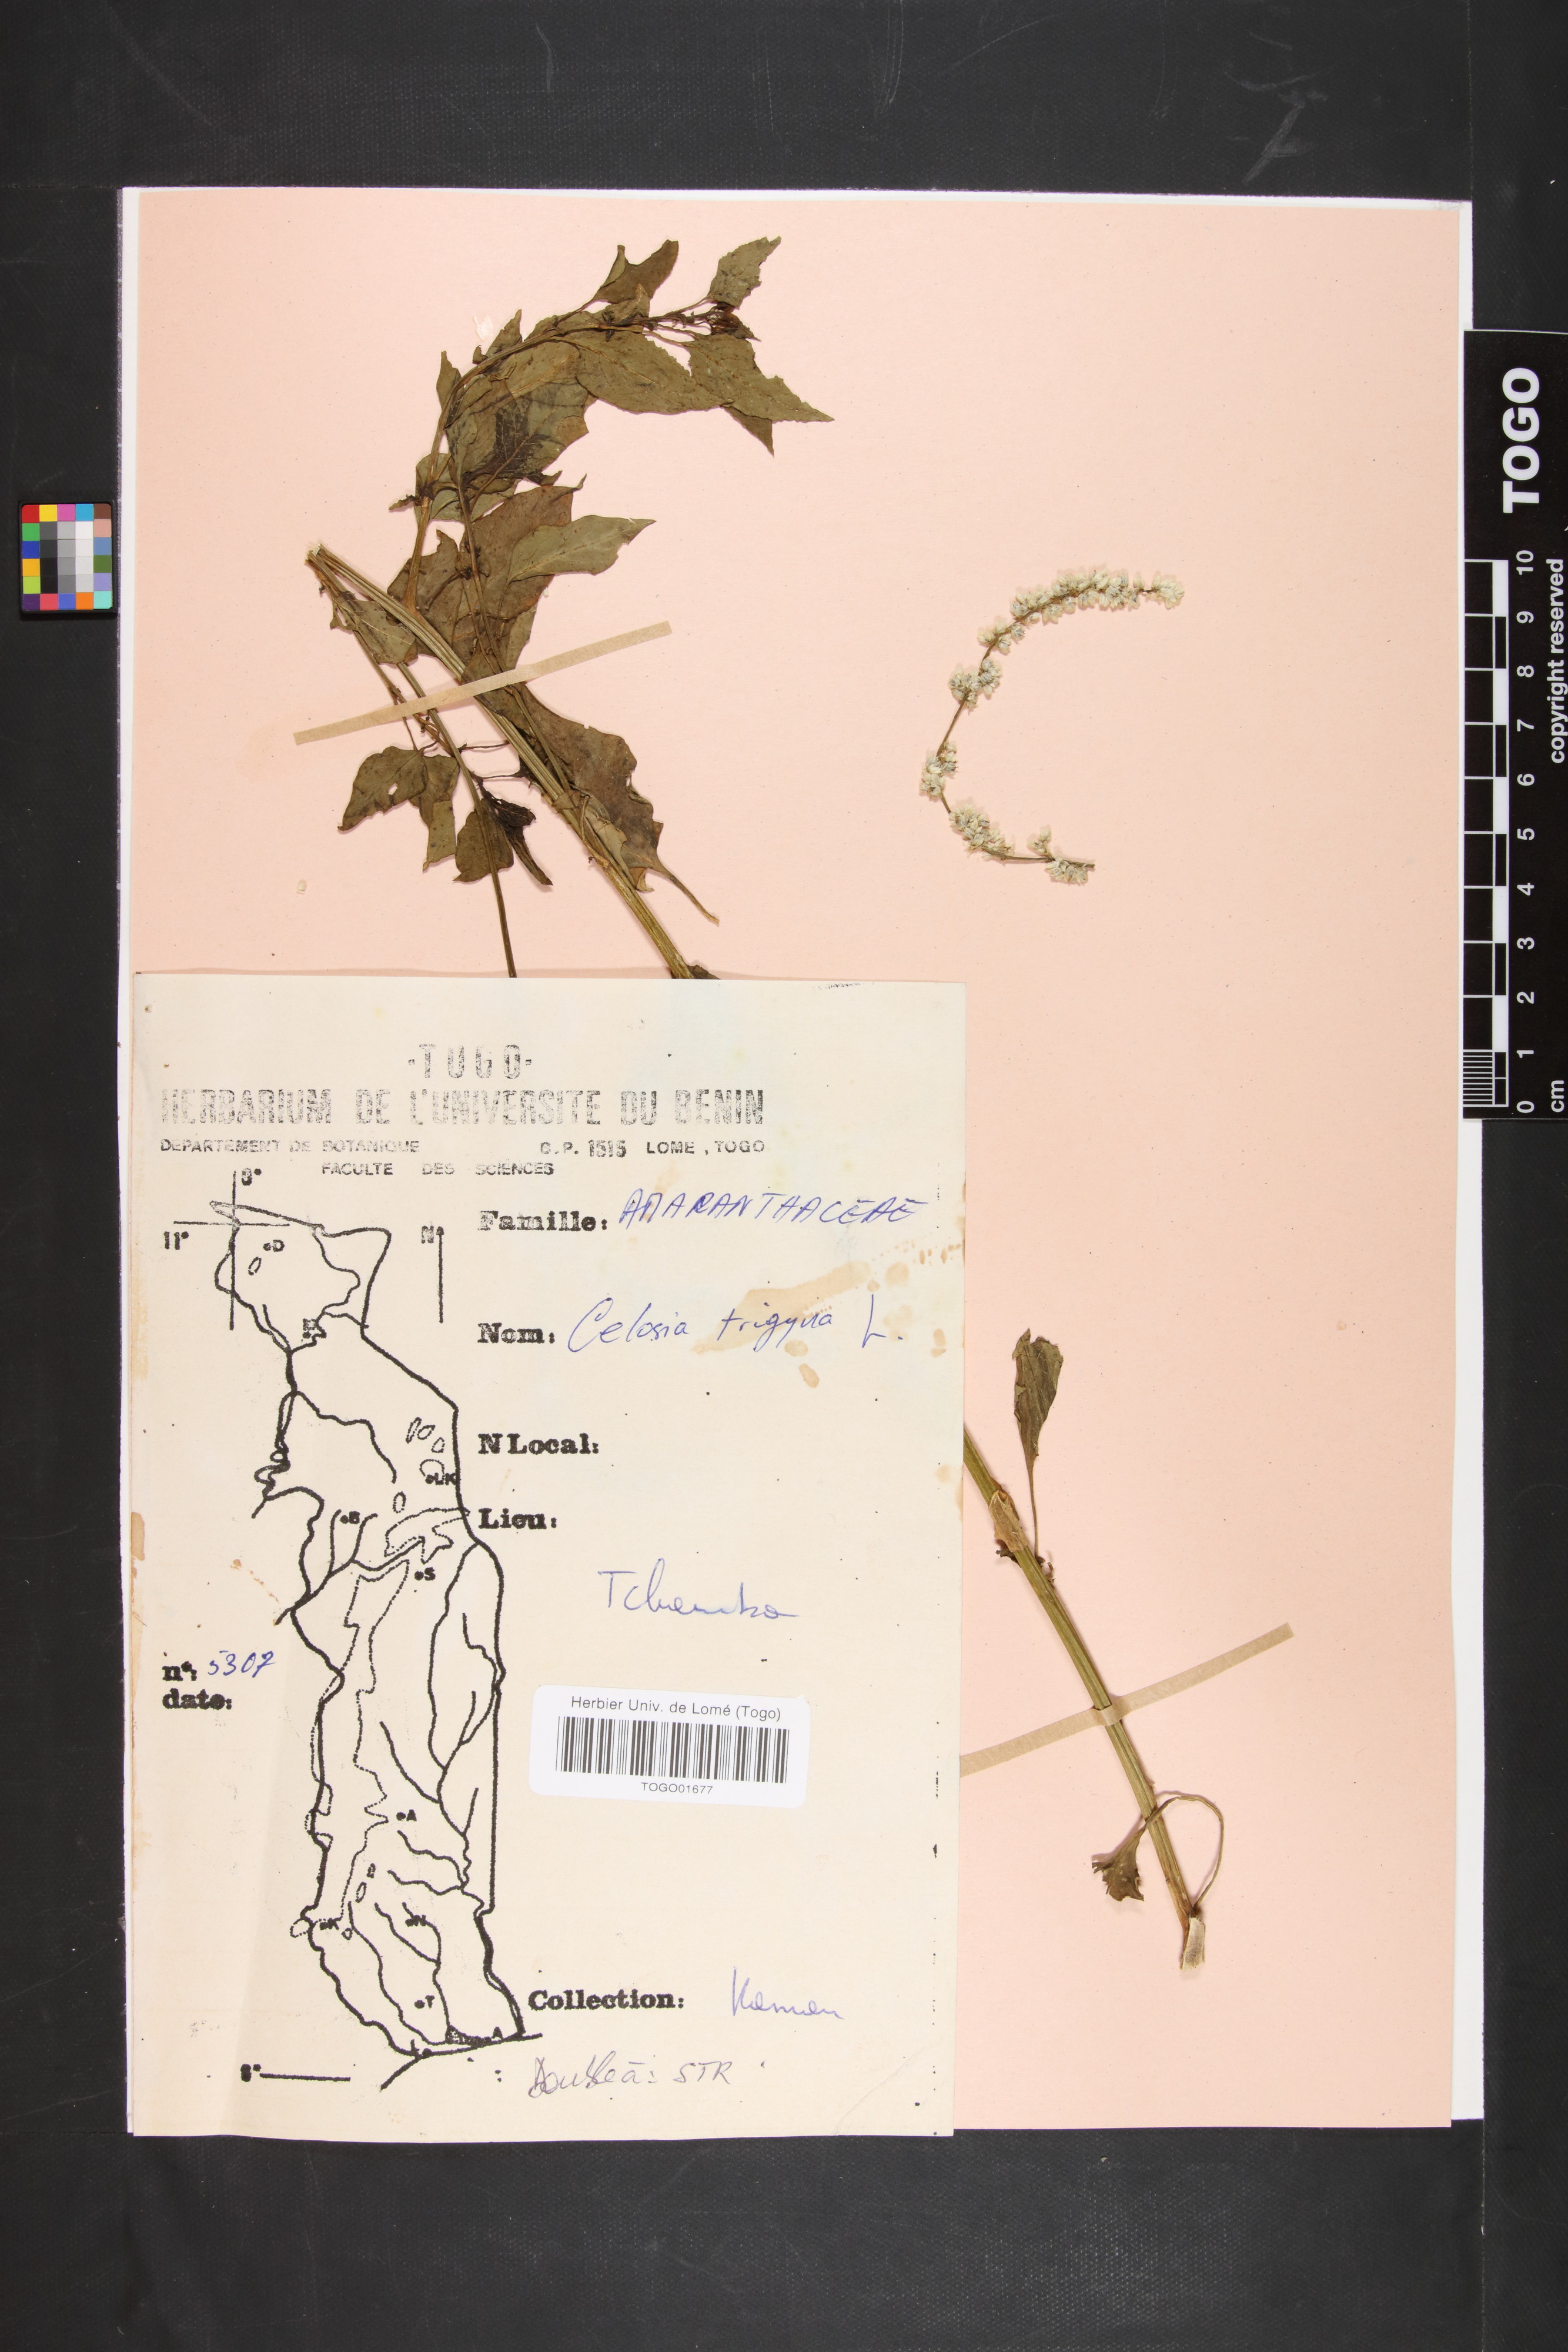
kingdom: Plantae
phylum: Tracheophyta
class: Magnoliopsida
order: Caryophyllales
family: Amaranthaceae
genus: Celosia
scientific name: Celosia trigyna
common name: Woolflower
